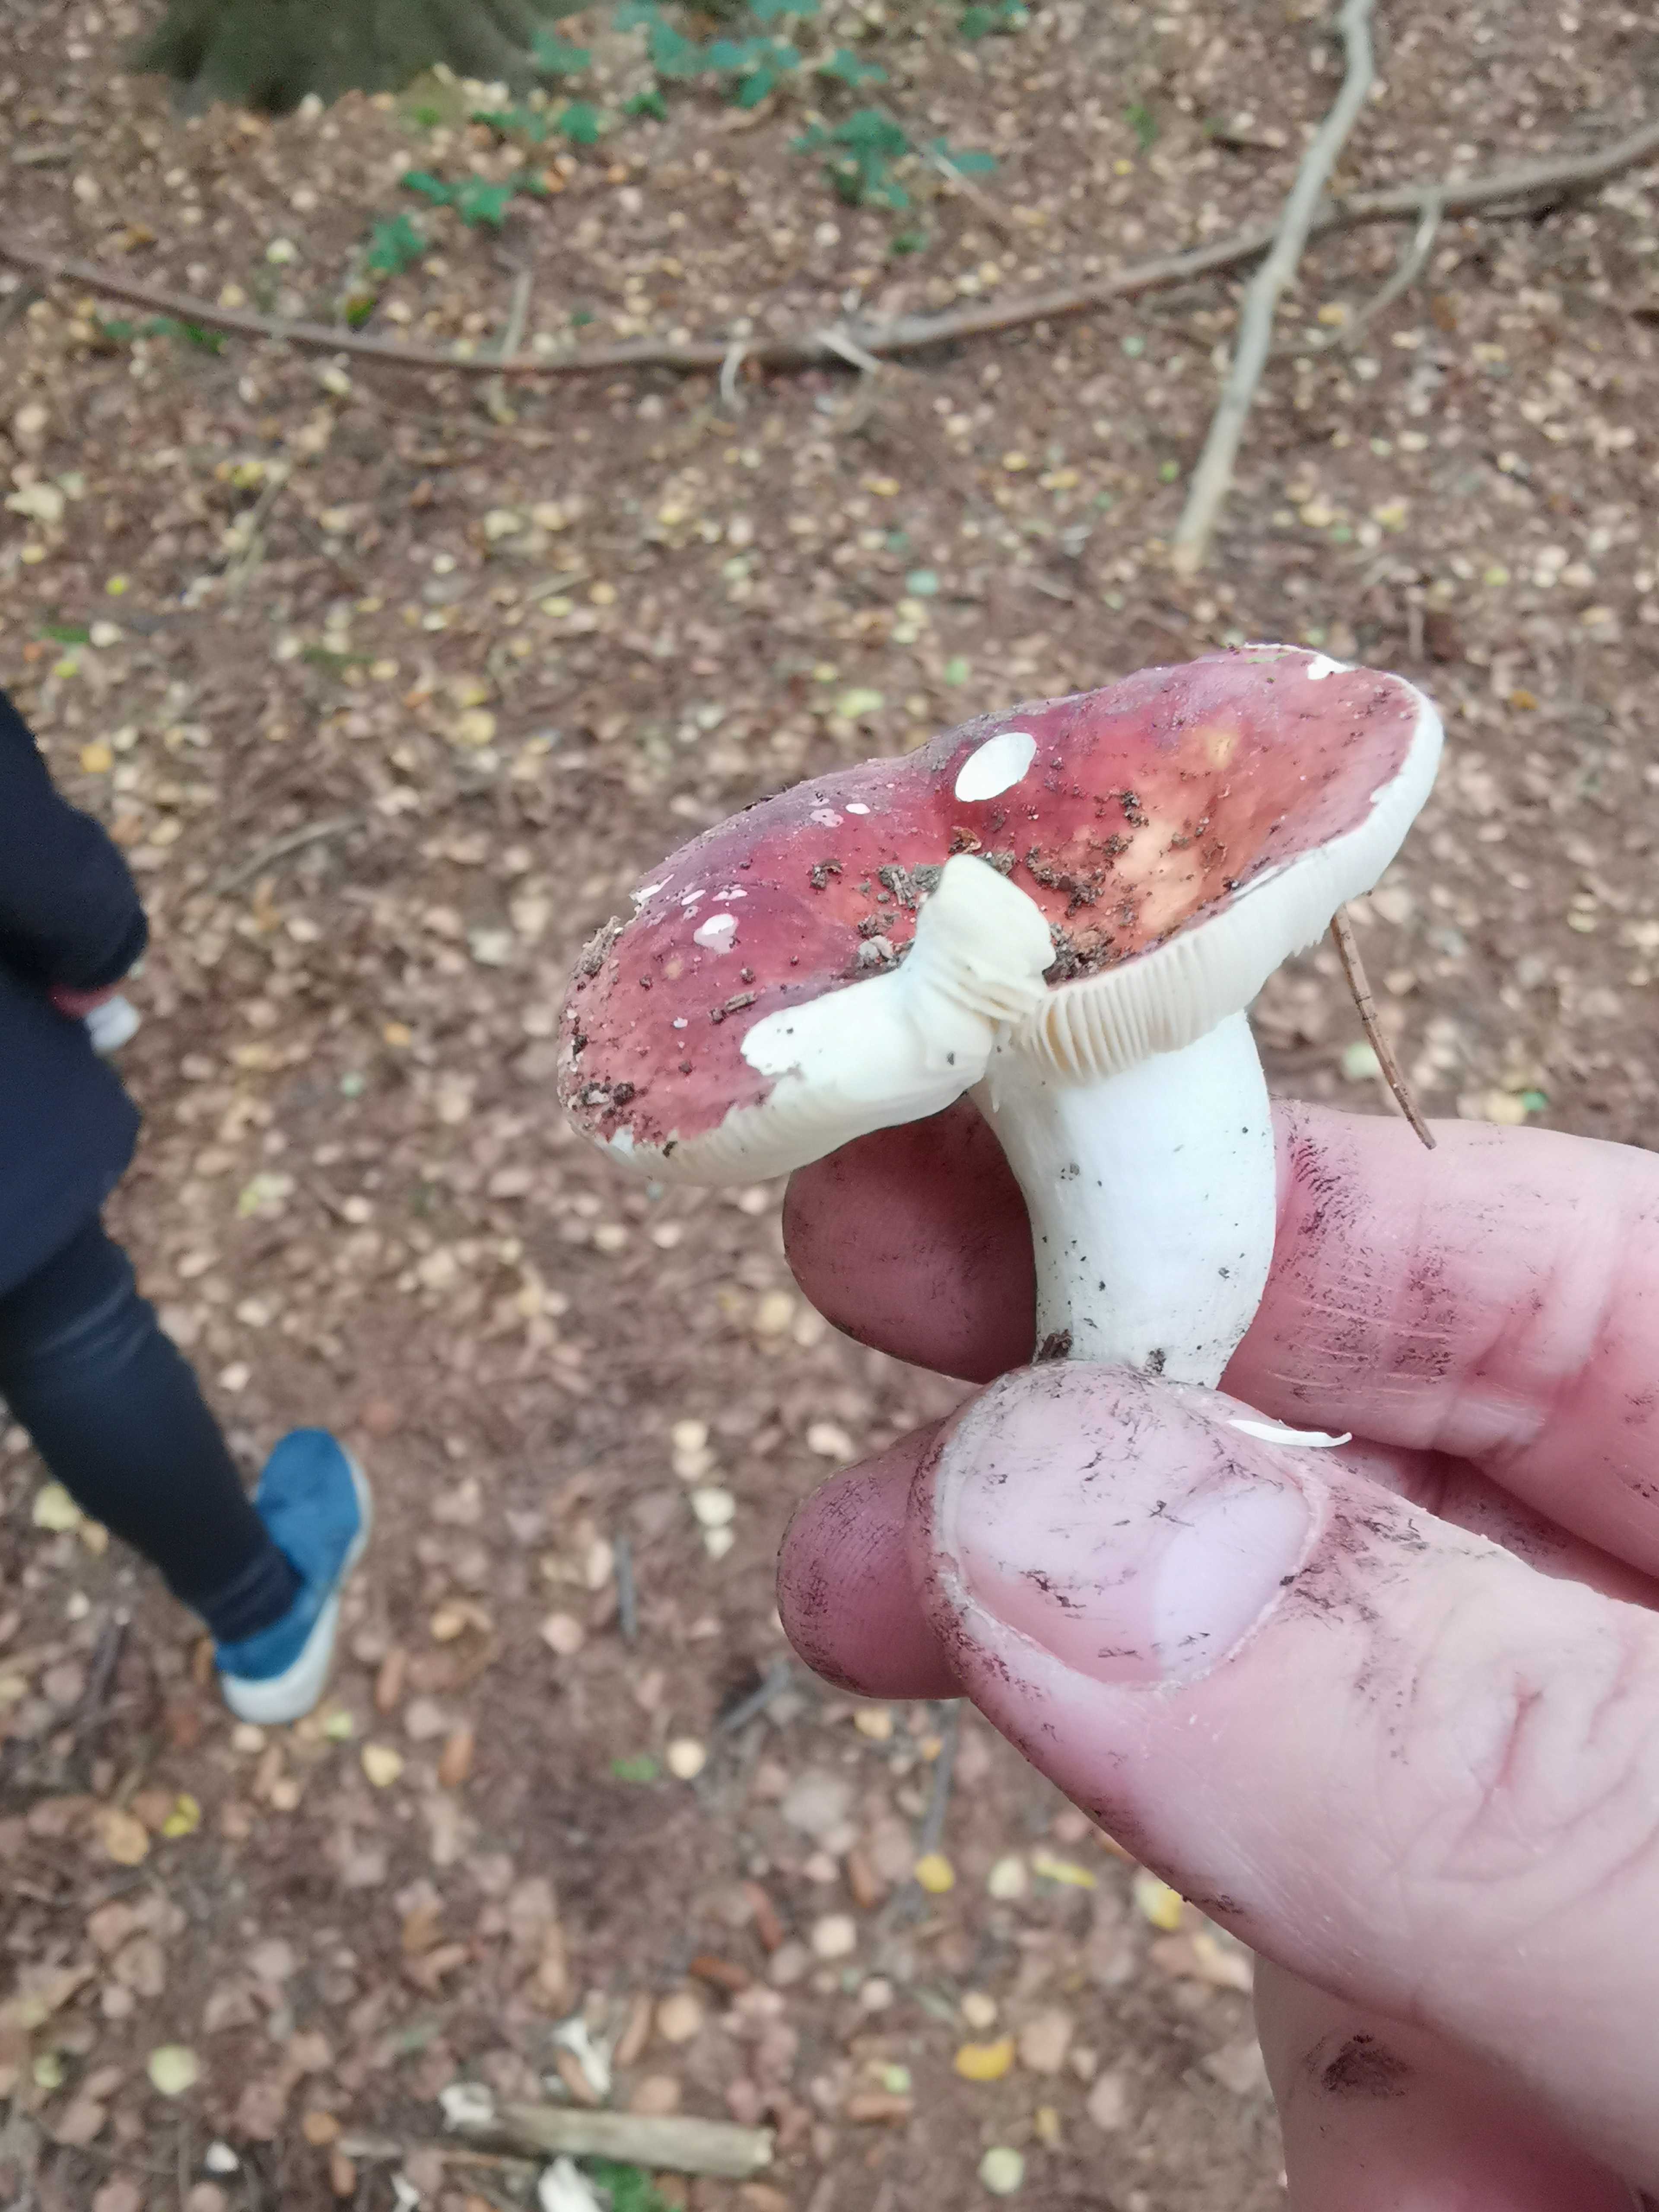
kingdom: Fungi
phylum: Basidiomycota
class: Agaricomycetes
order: Russulales
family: Russulaceae
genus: Russula
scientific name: Russula vesca
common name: spiselig skørhat
